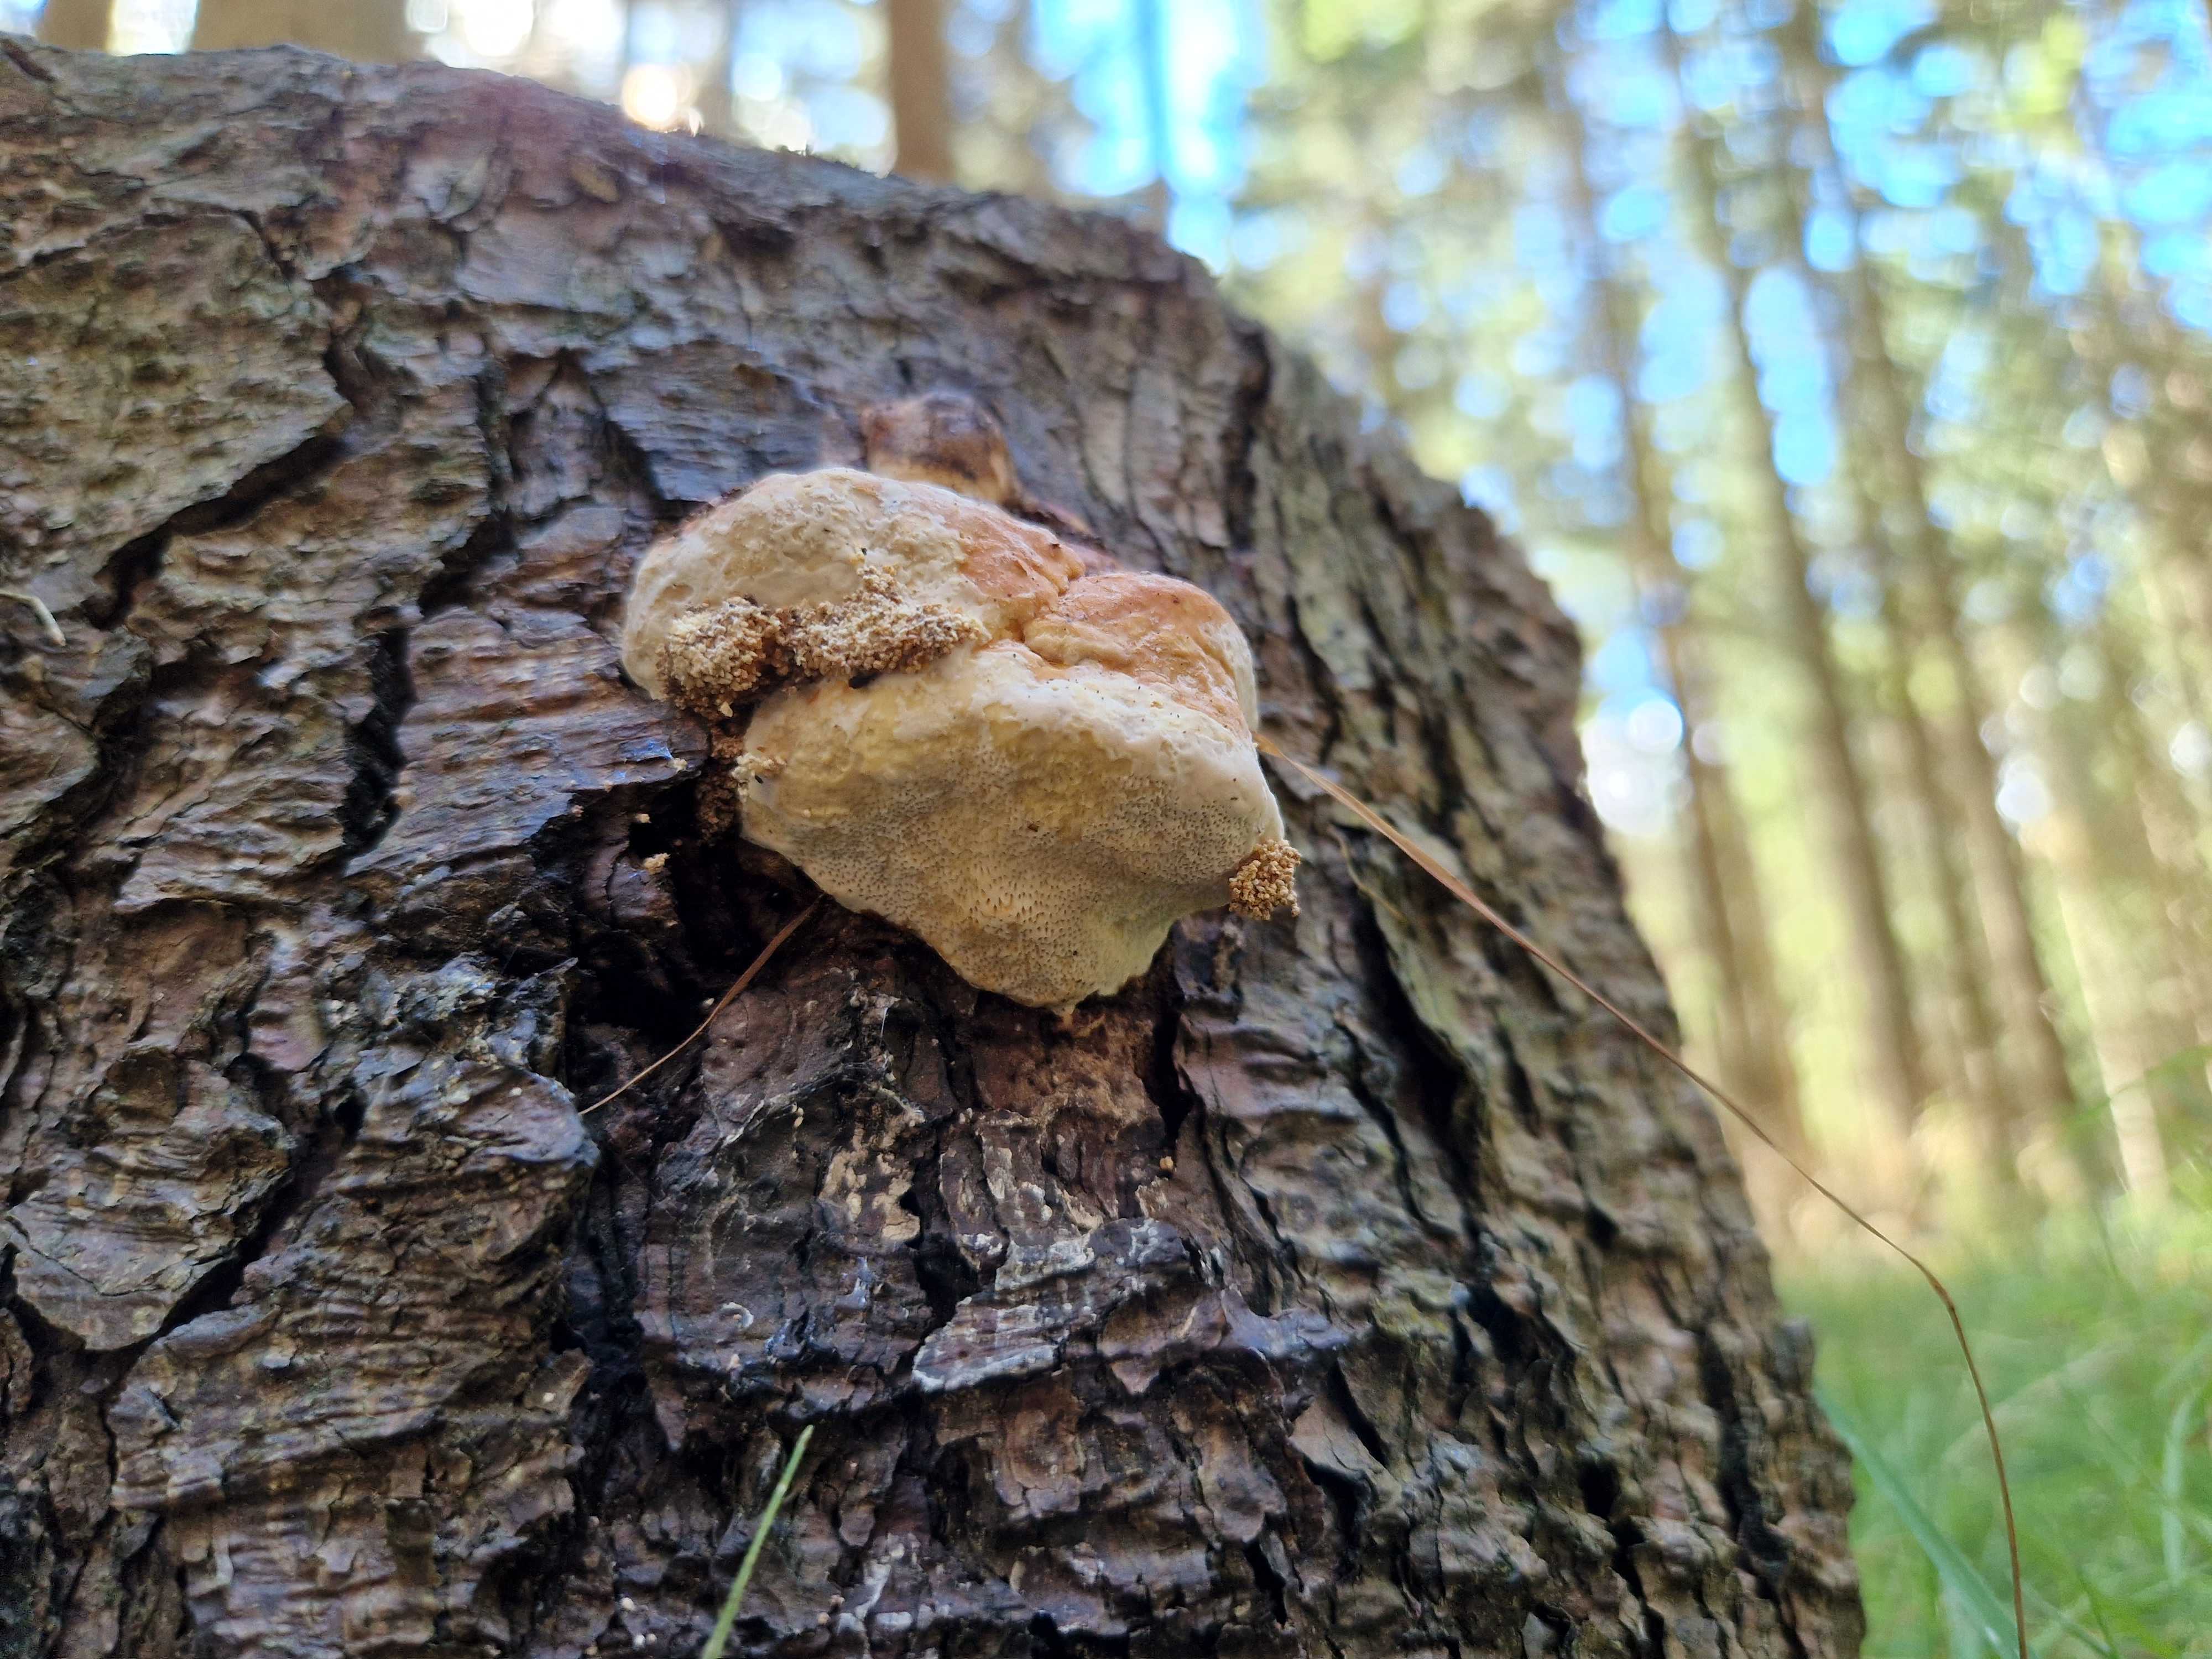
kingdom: Fungi
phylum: Basidiomycota
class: Agaricomycetes
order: Polyporales
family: Fomitopsidaceae
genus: Fomitopsis
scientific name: Fomitopsis pinicola
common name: randbæltet hovporesvamp
